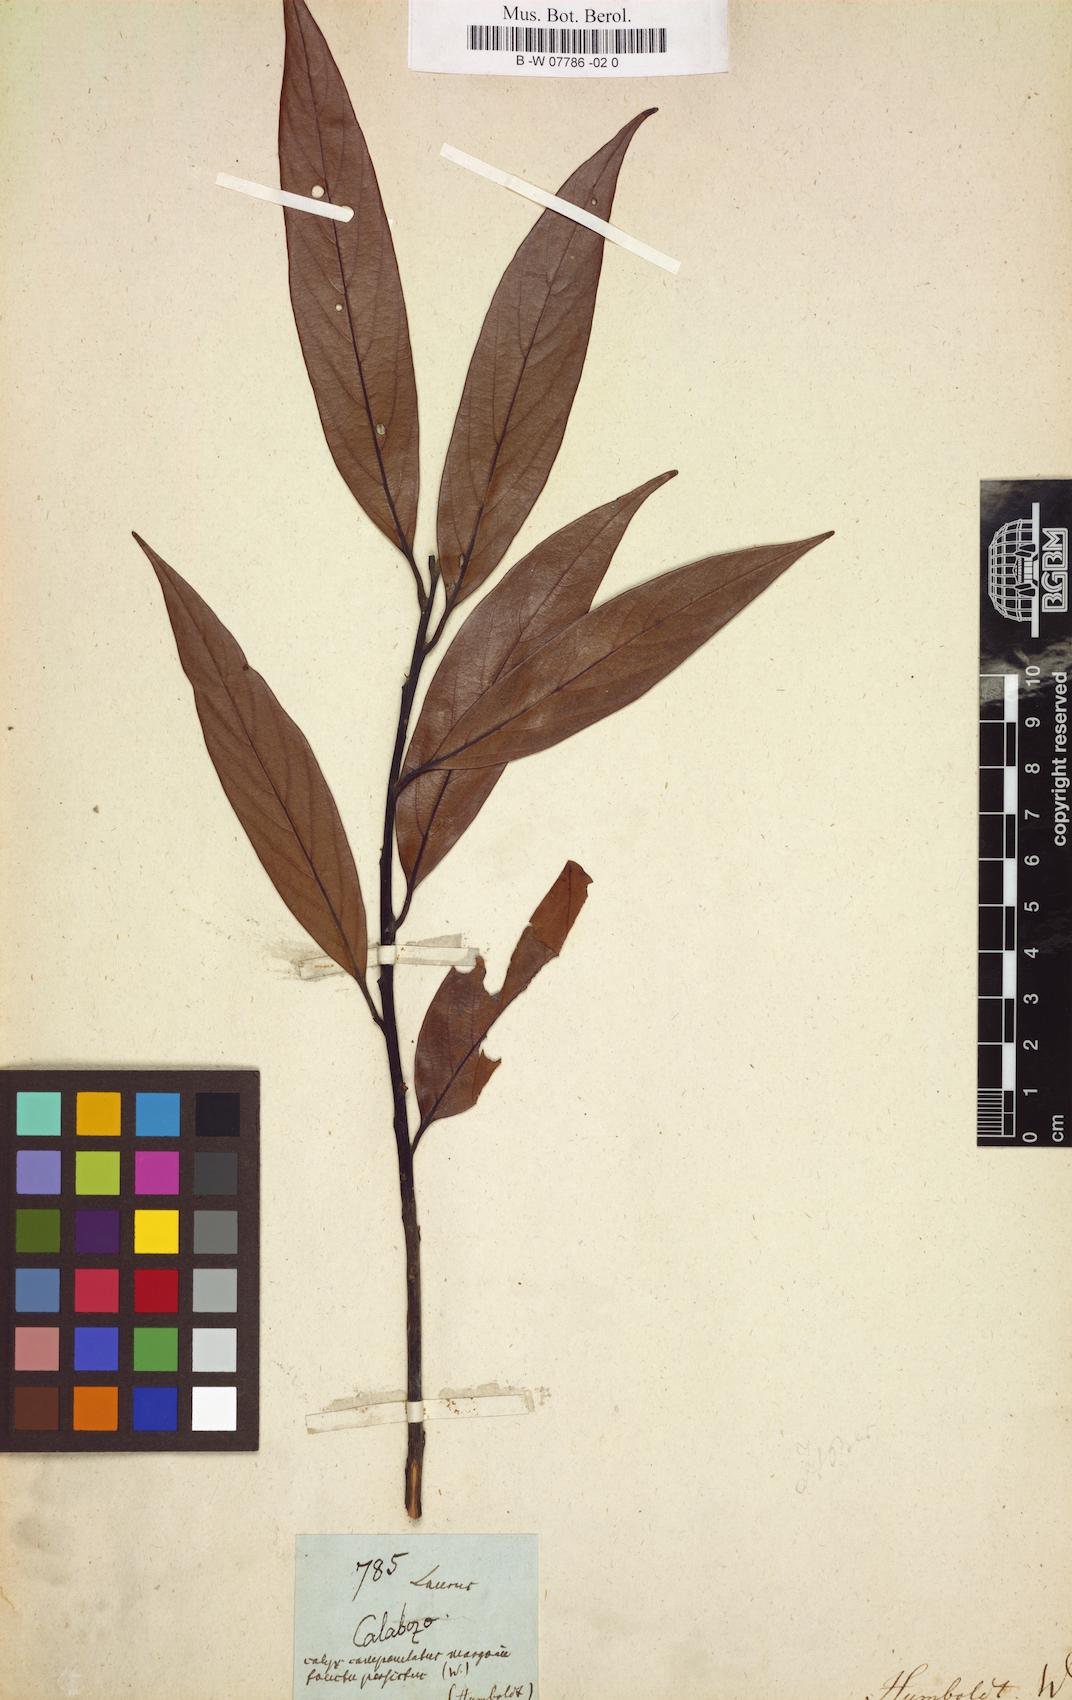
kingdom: Plantae
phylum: Tracheophyta
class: Magnoliopsida
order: Laurales
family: Lauraceae
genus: Nectandra
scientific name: Nectandra pichurim
